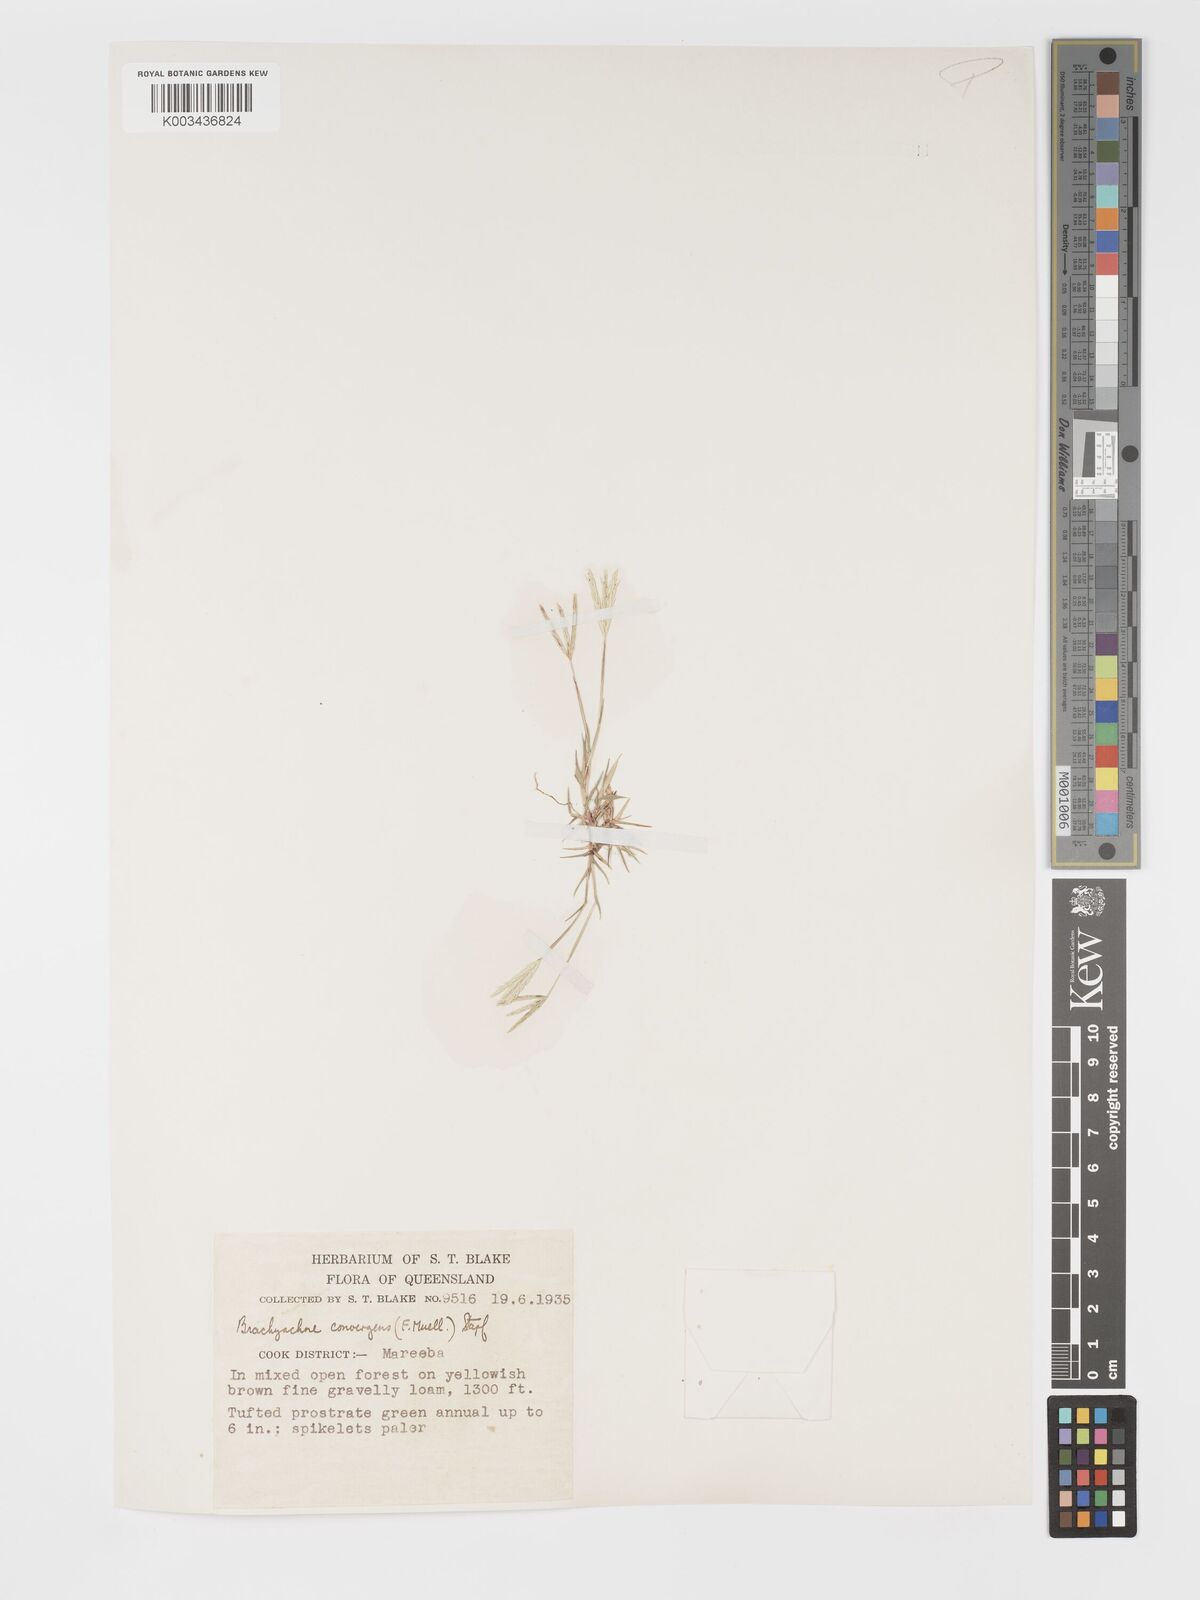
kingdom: Plantae
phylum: Tracheophyta
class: Liliopsida
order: Poales
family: Poaceae
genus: Cynodon
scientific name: Cynodon convergens
